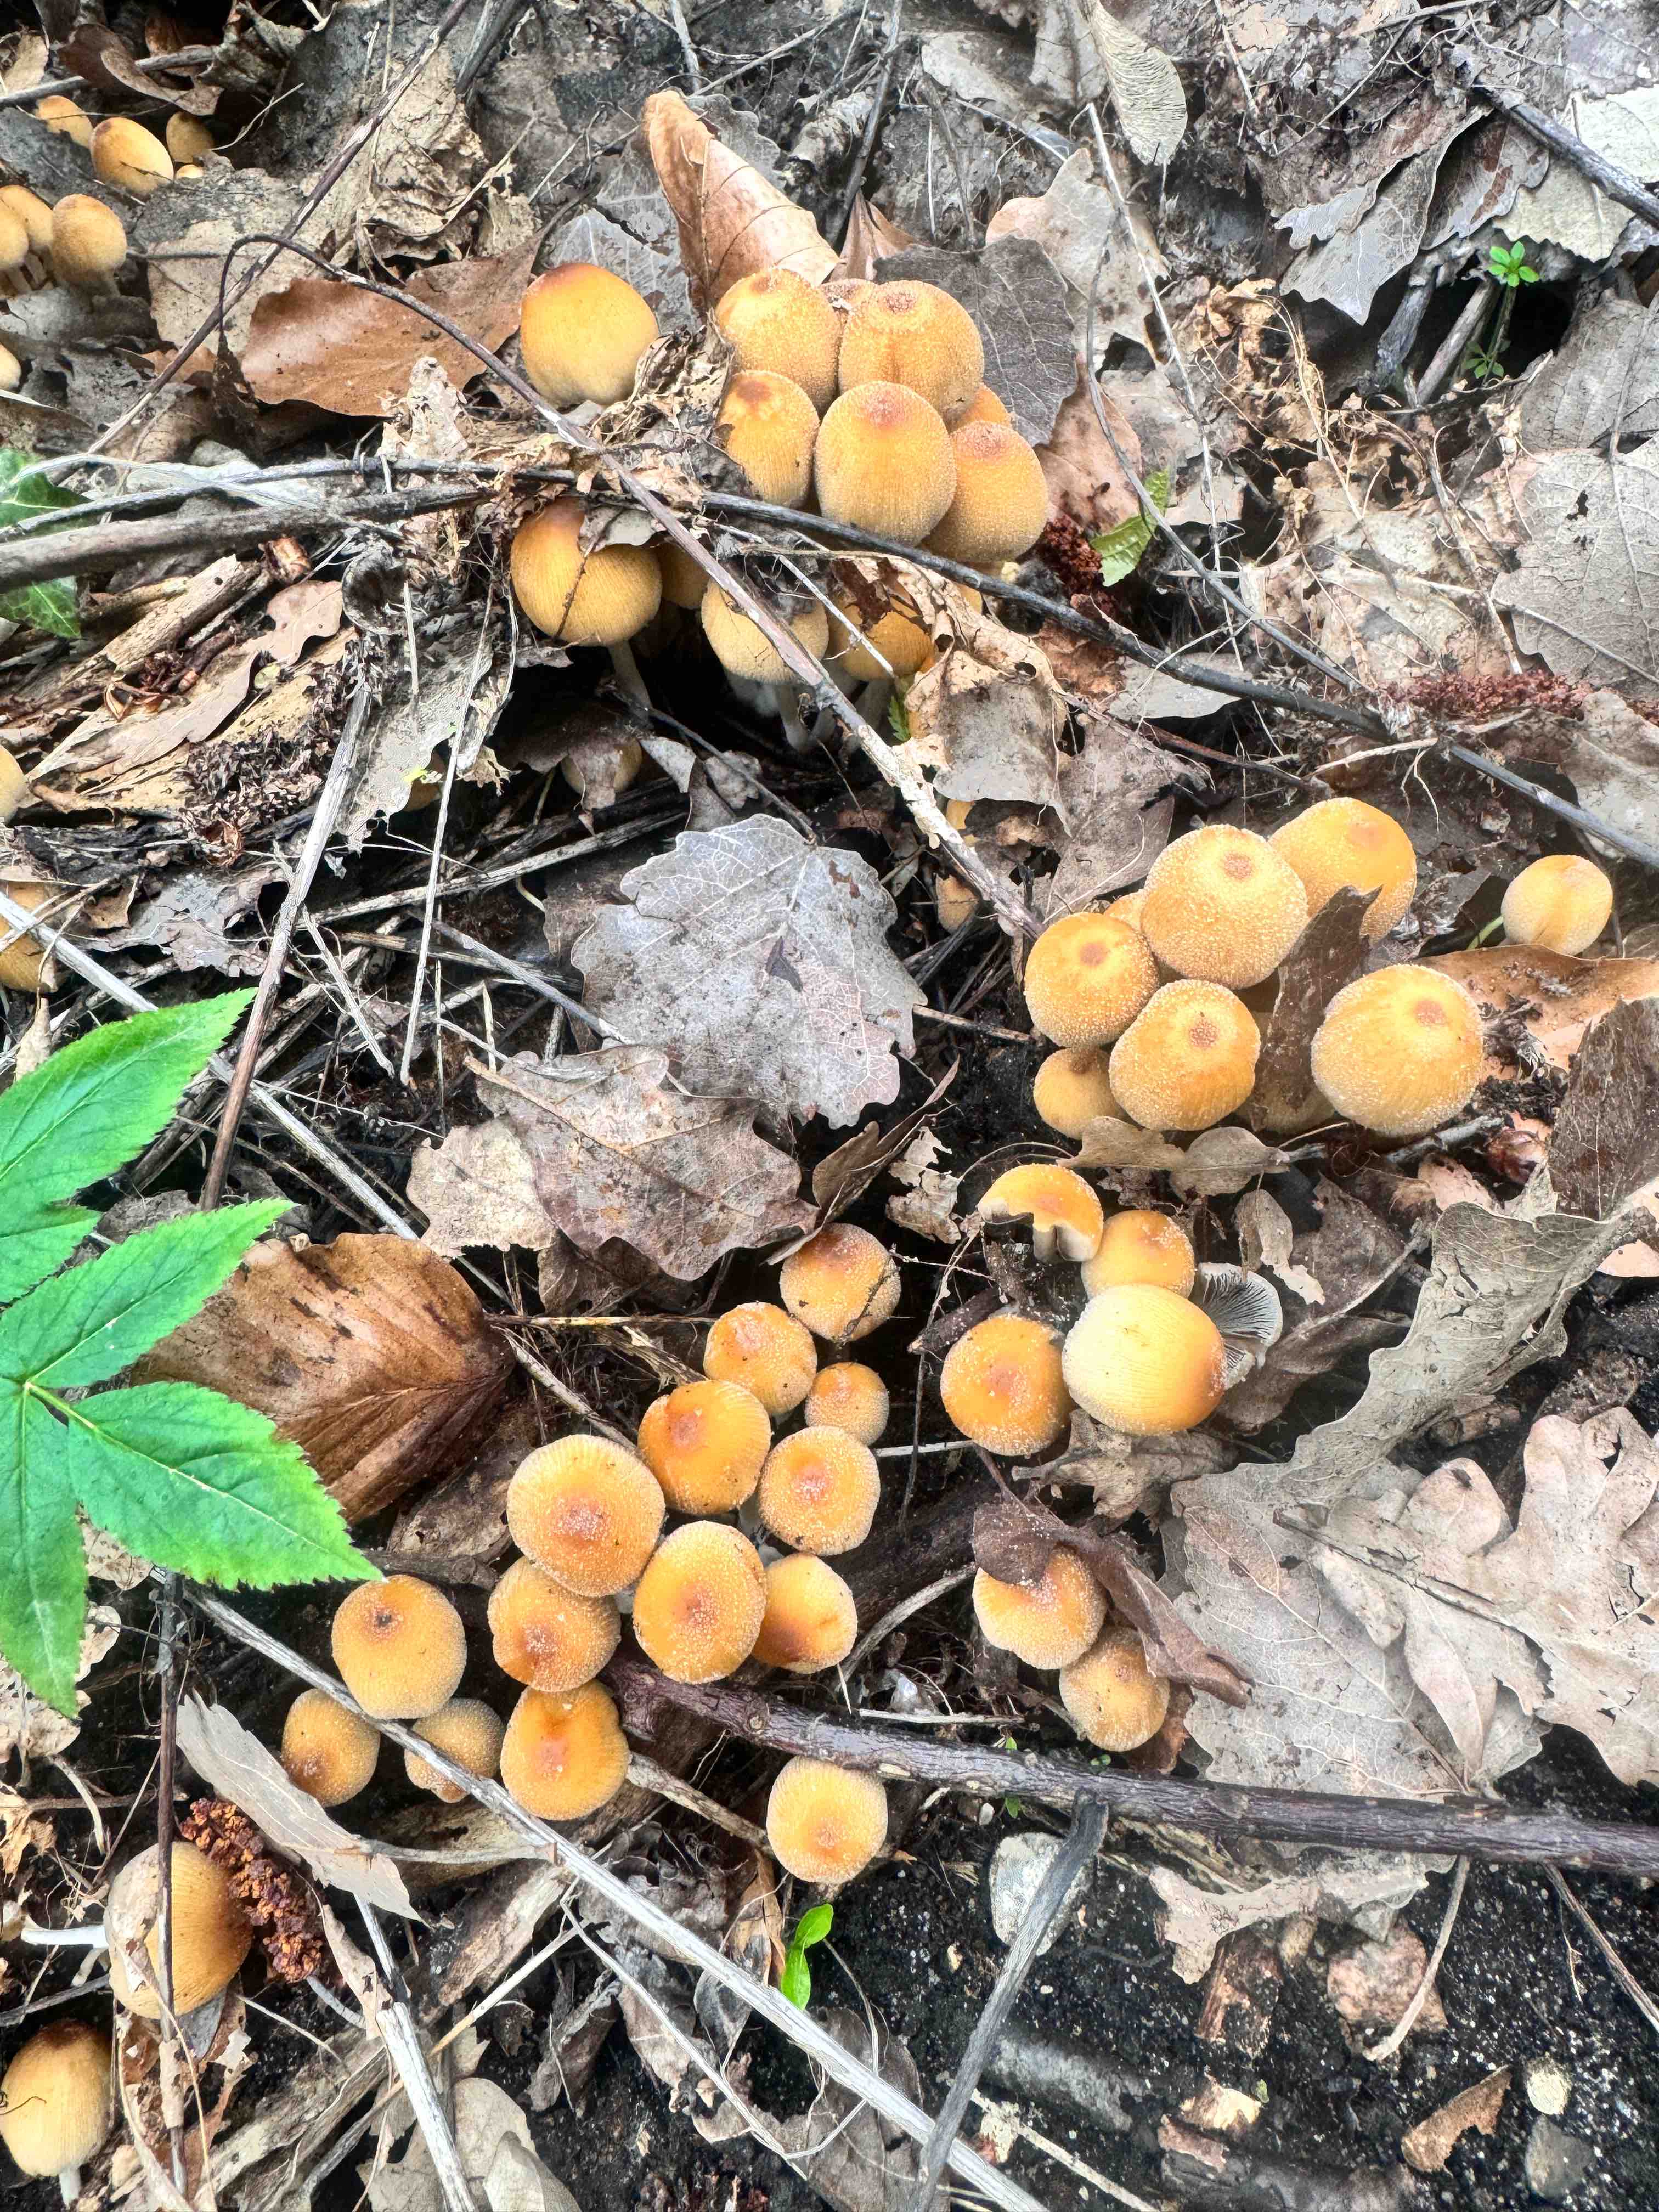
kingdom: Fungi
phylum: Basidiomycota
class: Agaricomycetes
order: Agaricales
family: Psathyrellaceae
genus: Coprinellus
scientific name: Coprinellus micaceus
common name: glimmer-blækhat
